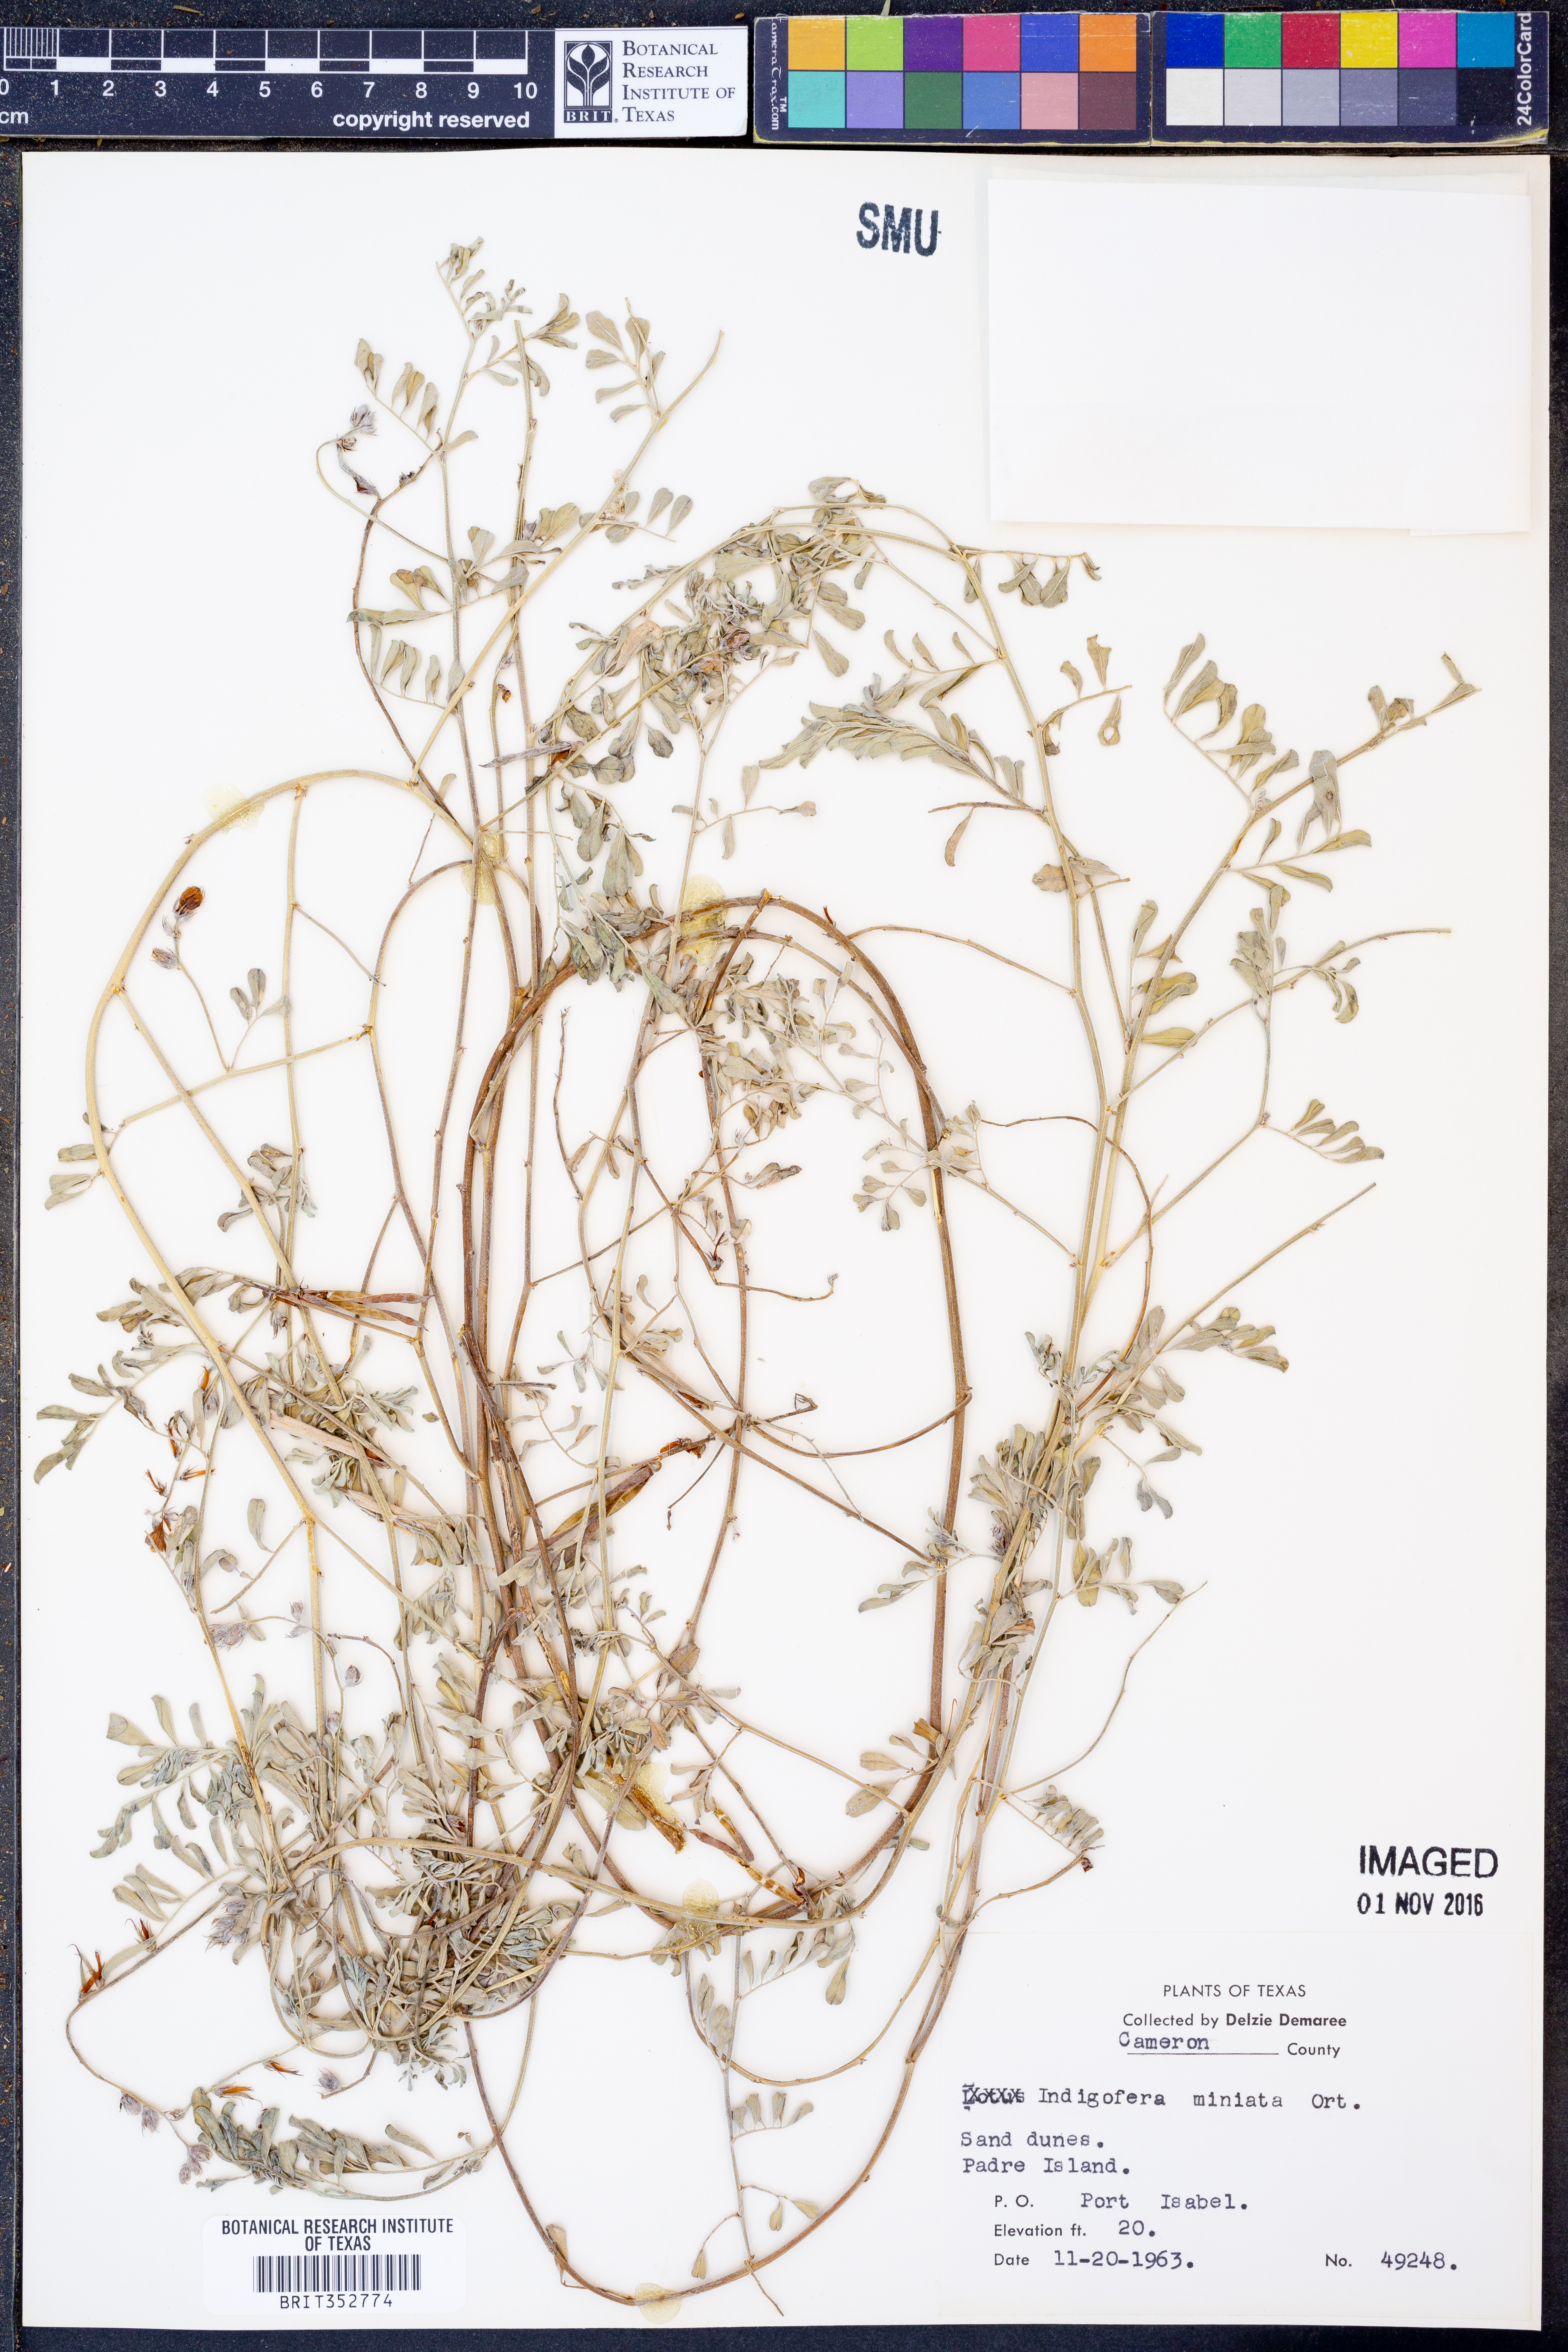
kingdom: Plantae
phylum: Tracheophyta
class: Magnoliopsida
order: Fabales
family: Fabaceae
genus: Indigofera
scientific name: Indigofera miniata
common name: Coast indigo
